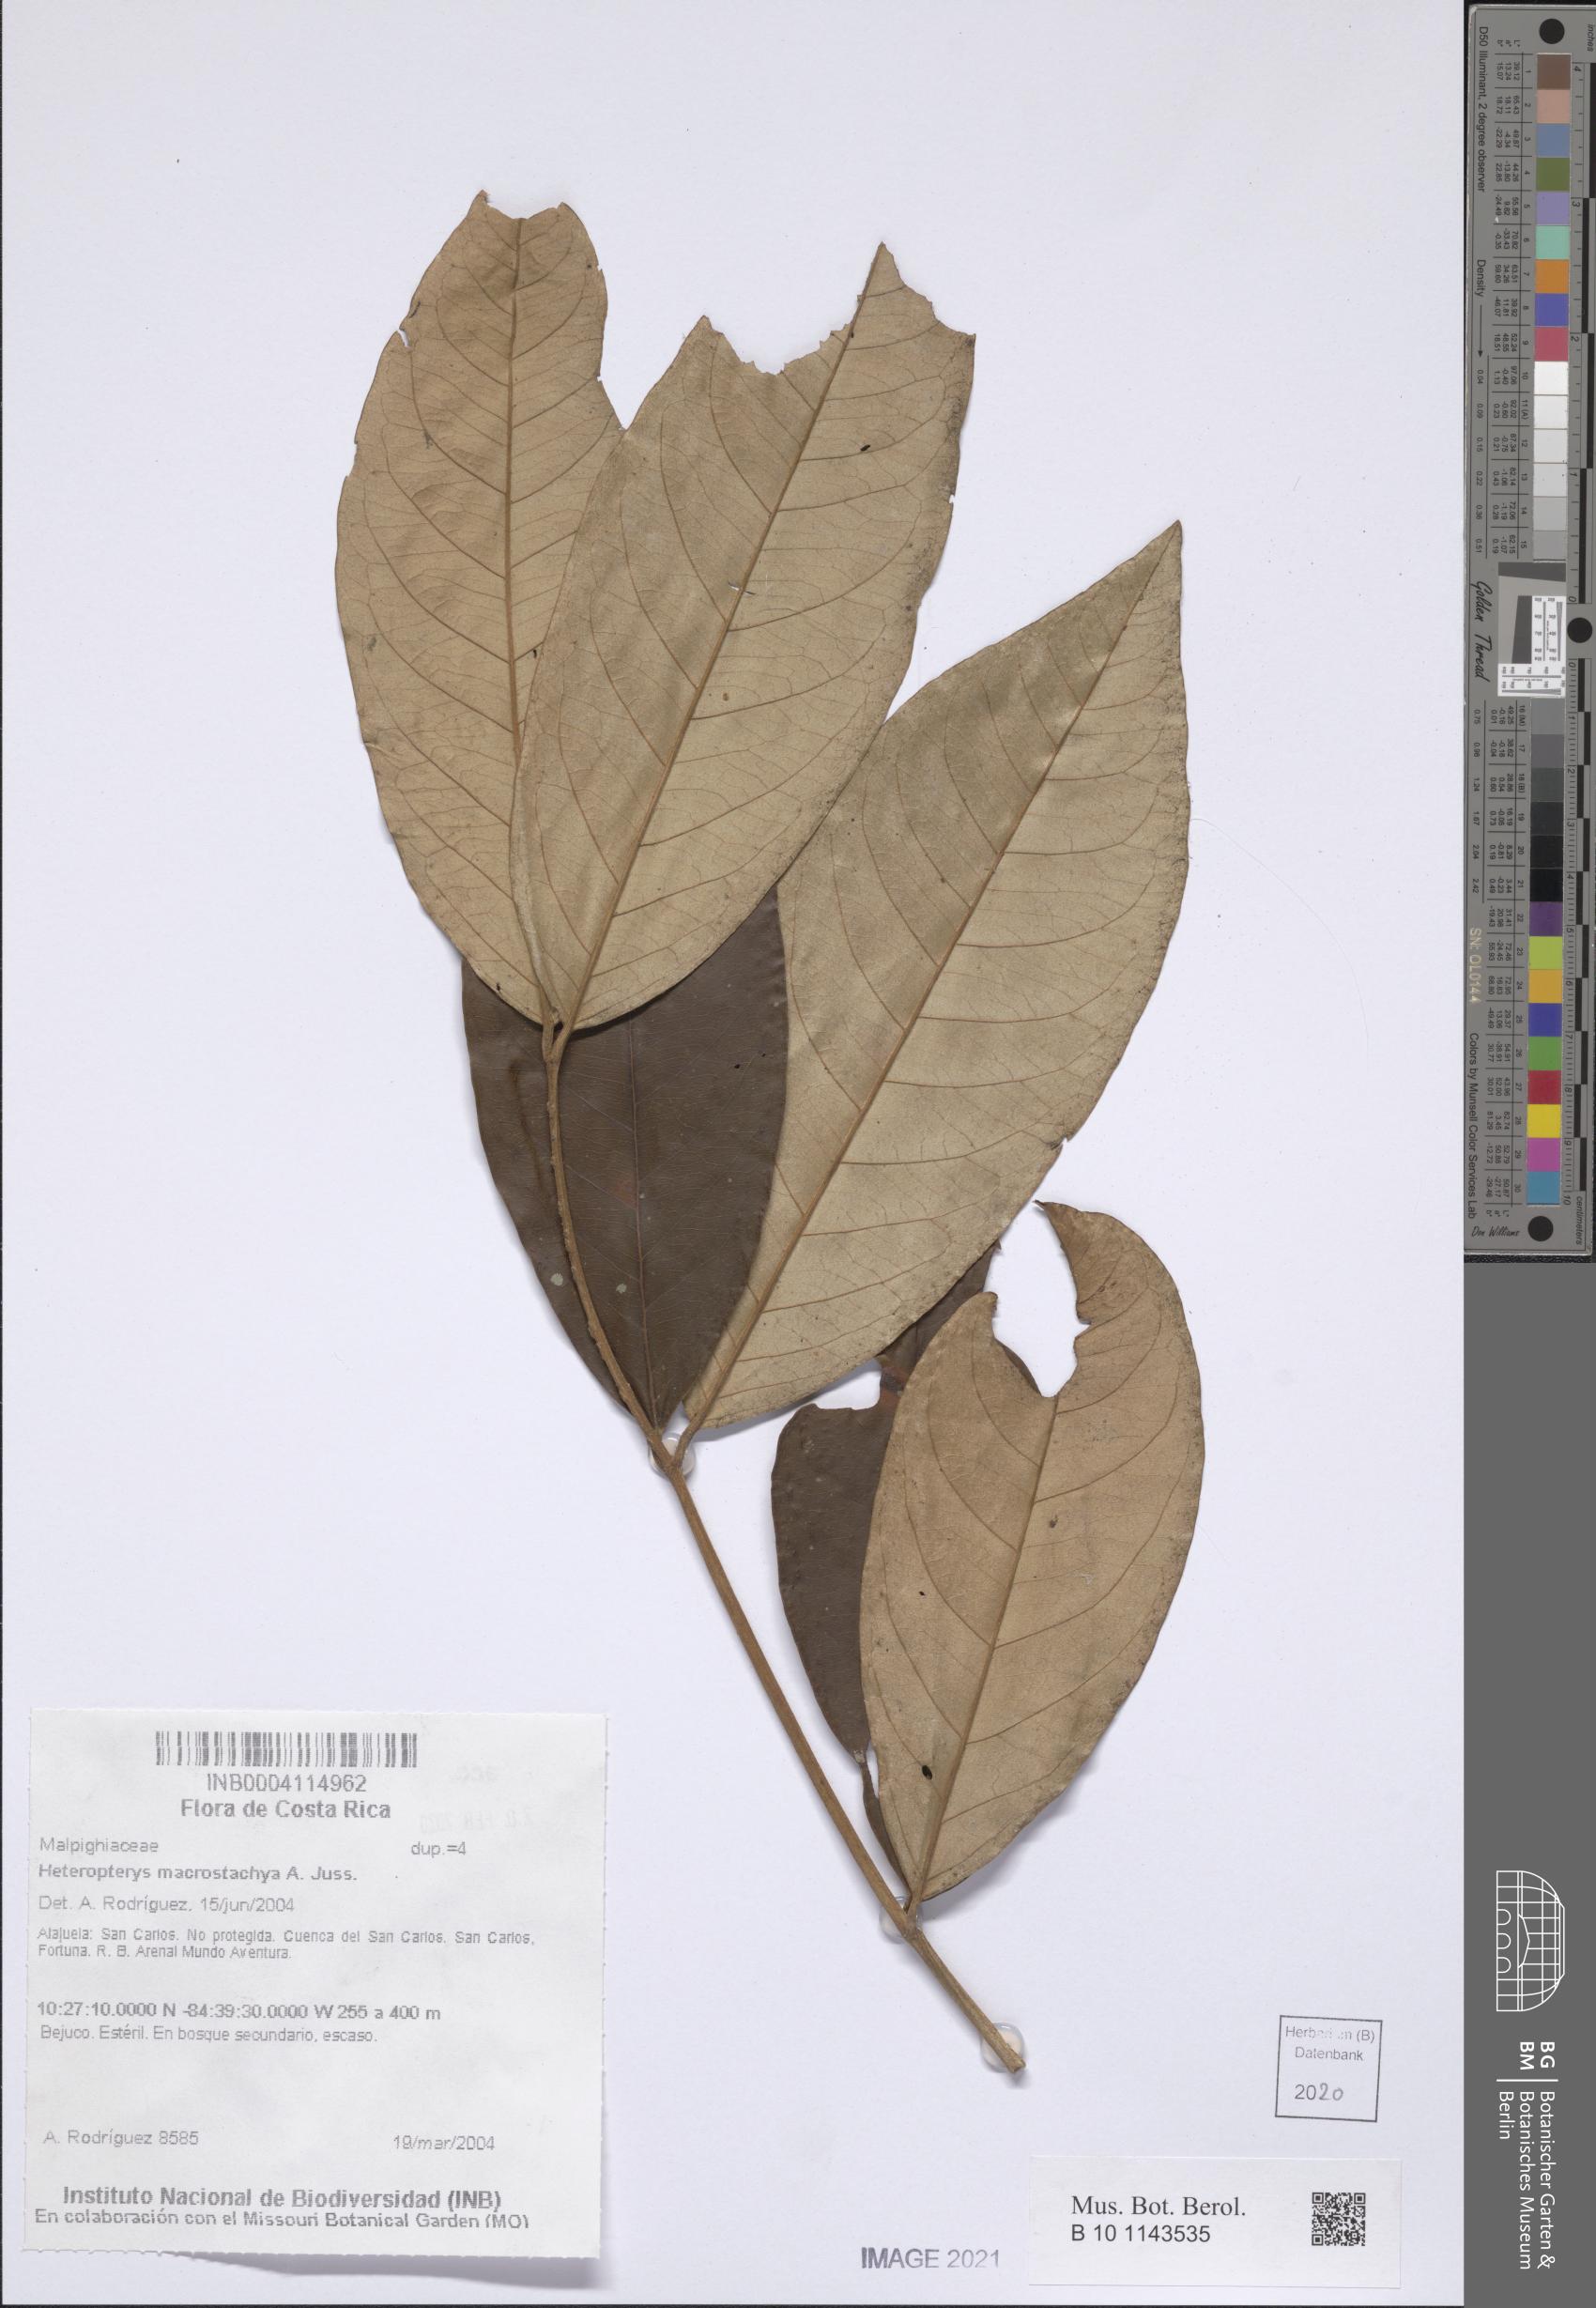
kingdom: Plantae
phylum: Tracheophyta
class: Magnoliopsida
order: Malpighiales
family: Malpighiaceae
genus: Heteropterys
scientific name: Heteropterys macrostachya
